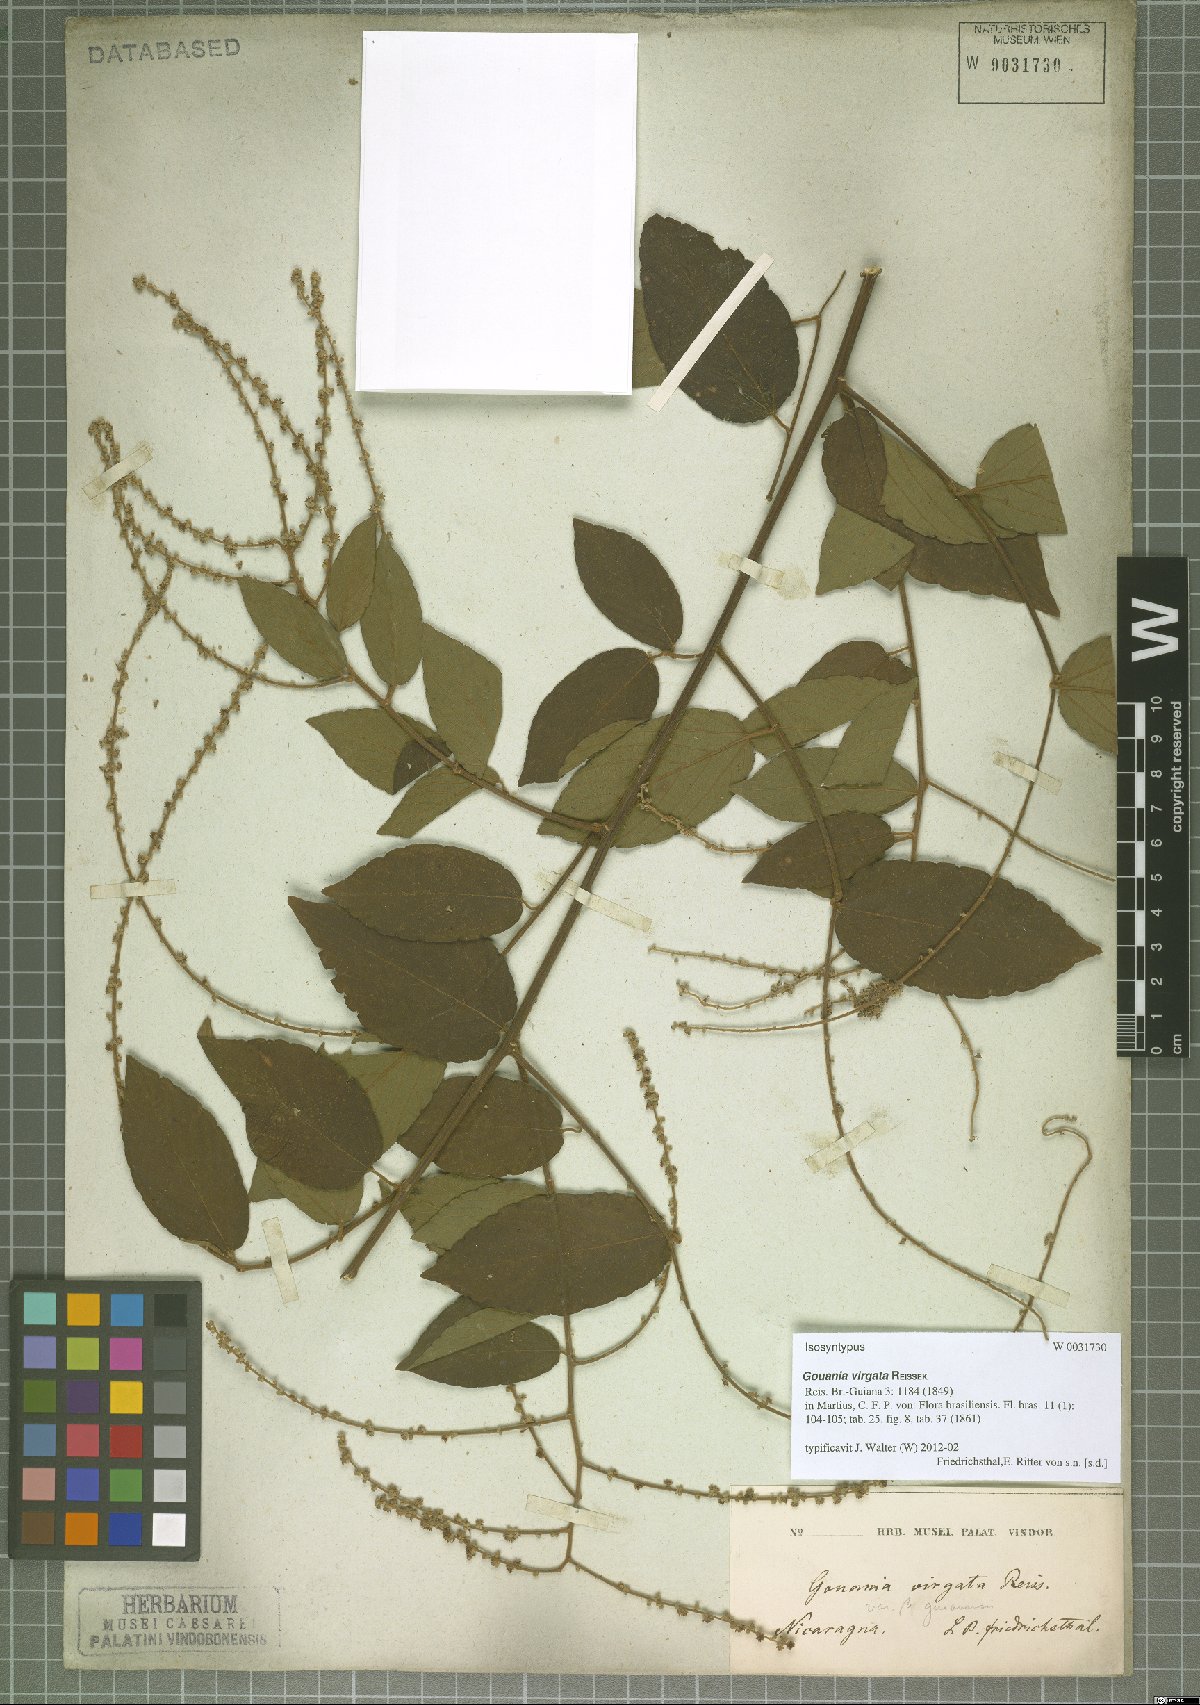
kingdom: Plantae
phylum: Tracheophyta
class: Magnoliopsida
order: Rosales
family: Rhamnaceae
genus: Gouania
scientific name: Gouania lupuloides
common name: Chewstick
